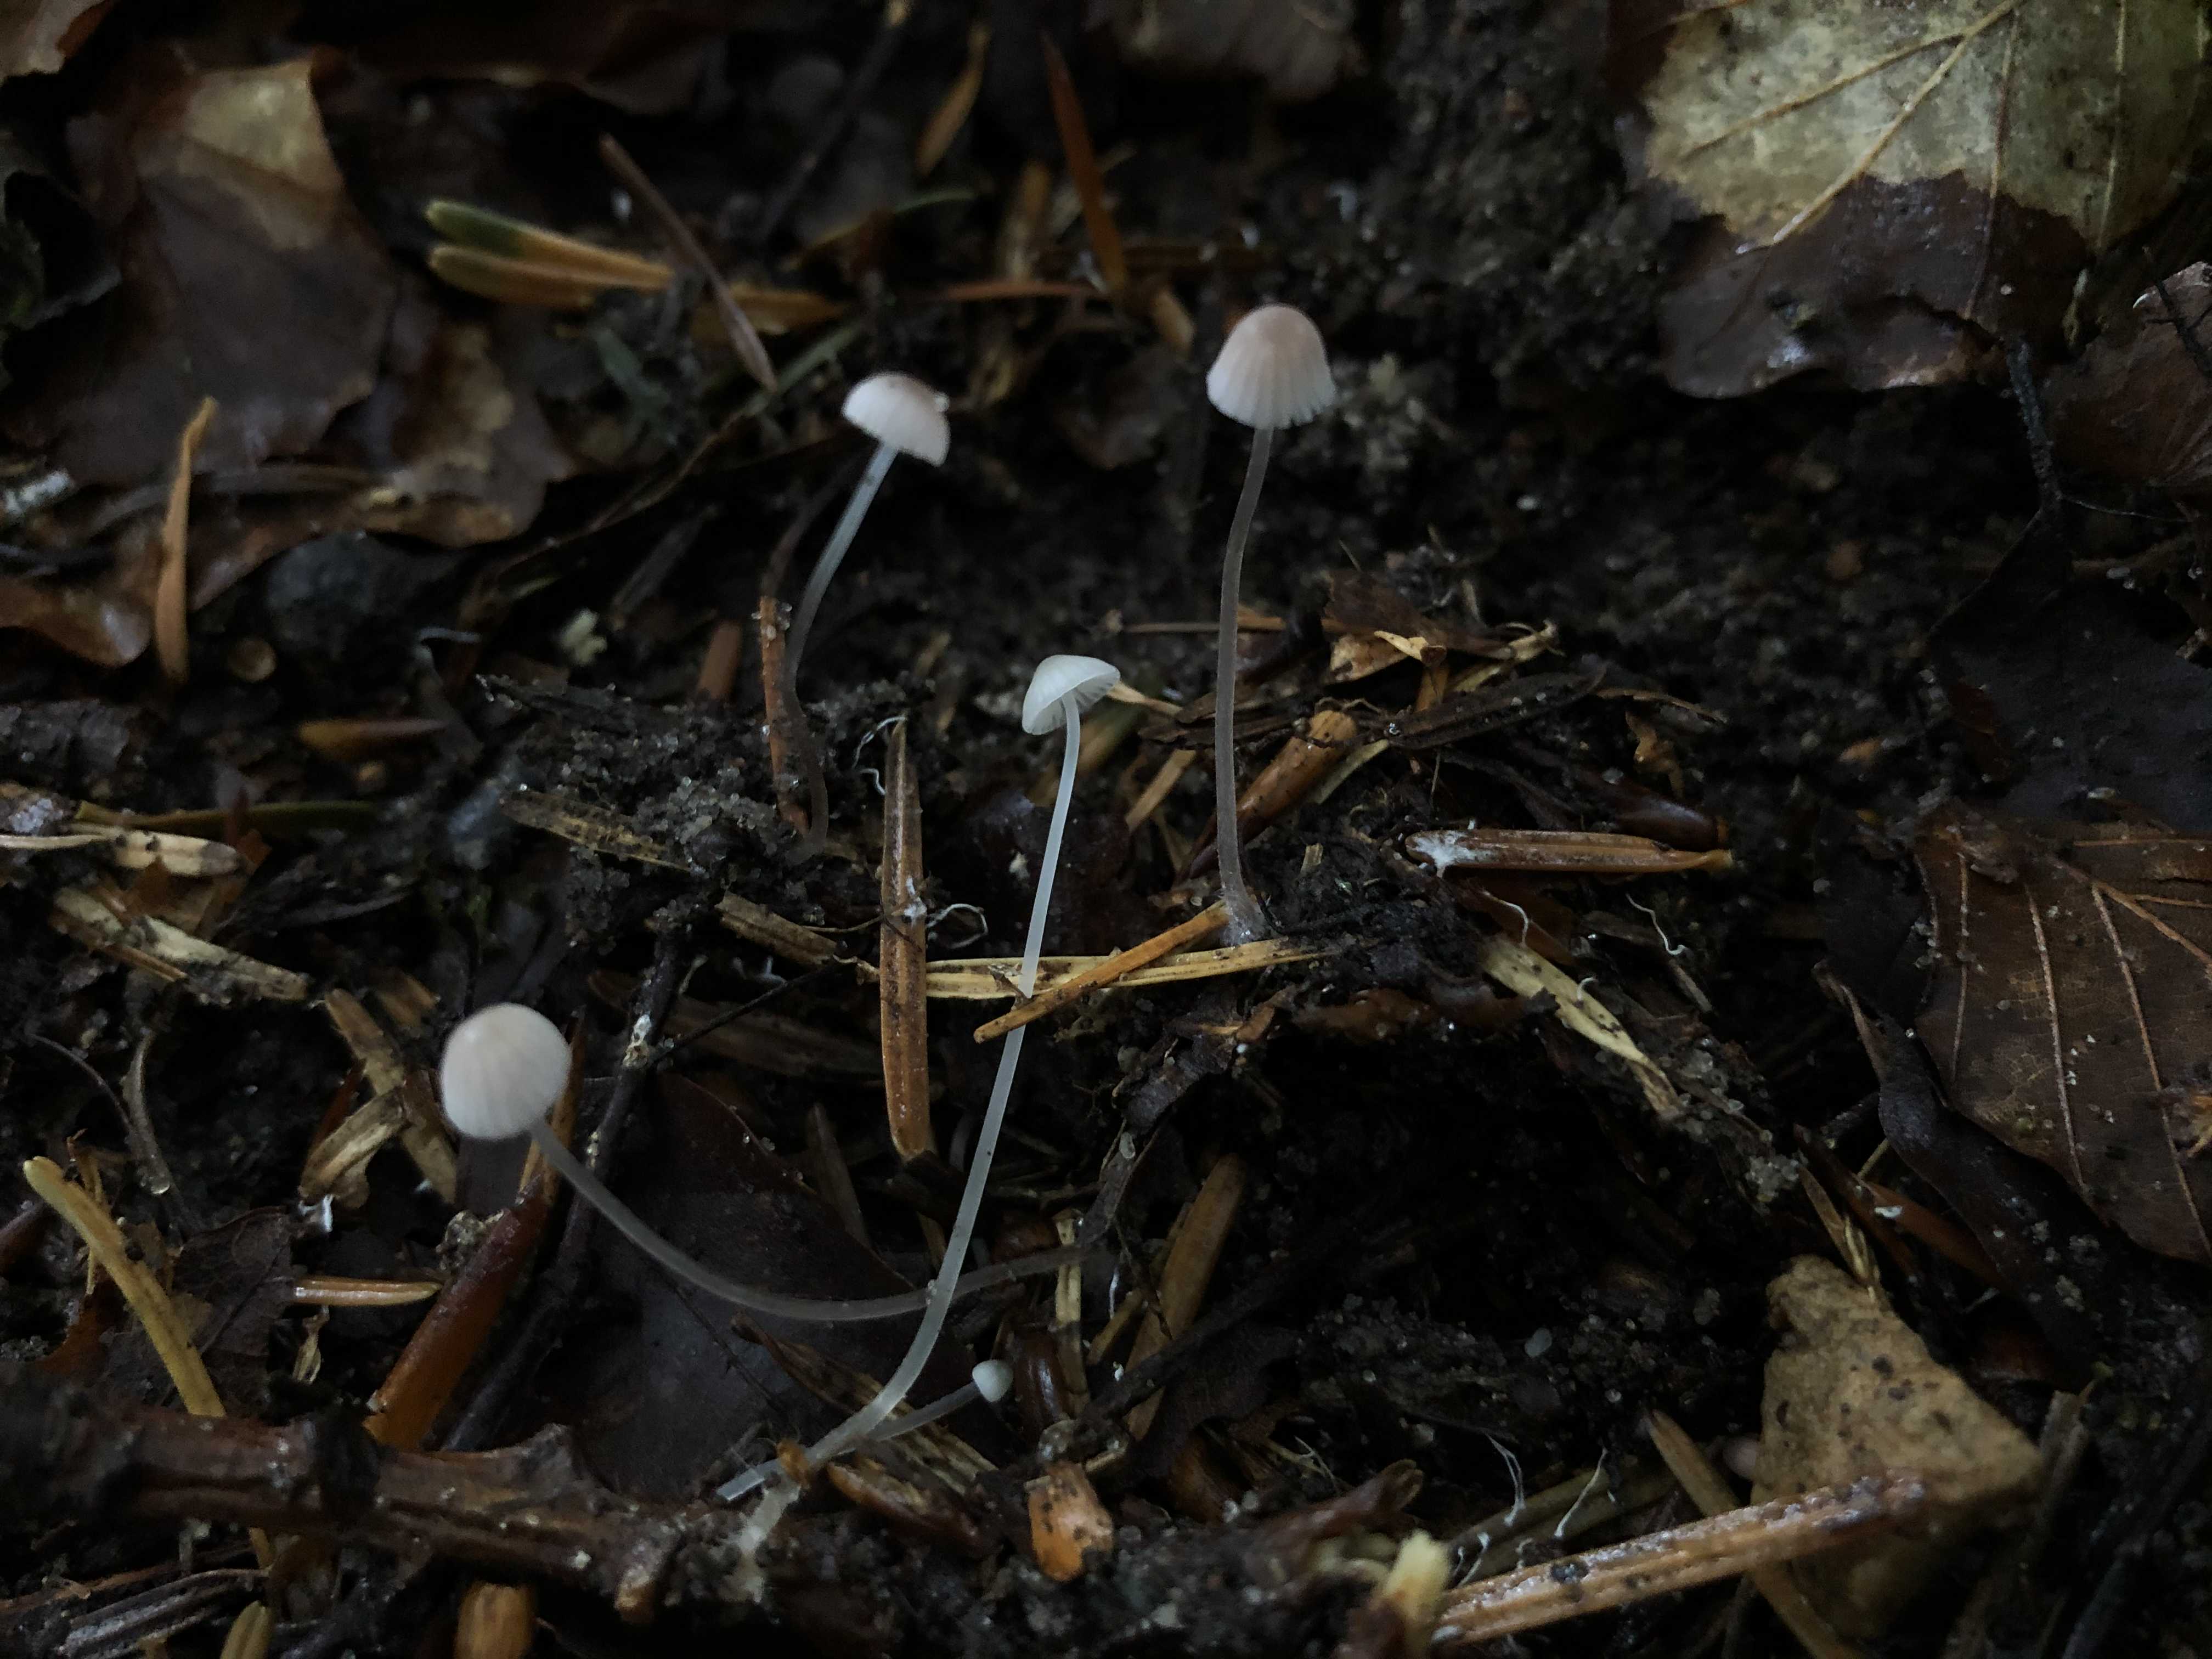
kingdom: Fungi
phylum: Basidiomycota
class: Agaricomycetes
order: Agaricales
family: Mycenaceae
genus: Mycena
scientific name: Mycena vitilis
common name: blankstokket huesvamp
